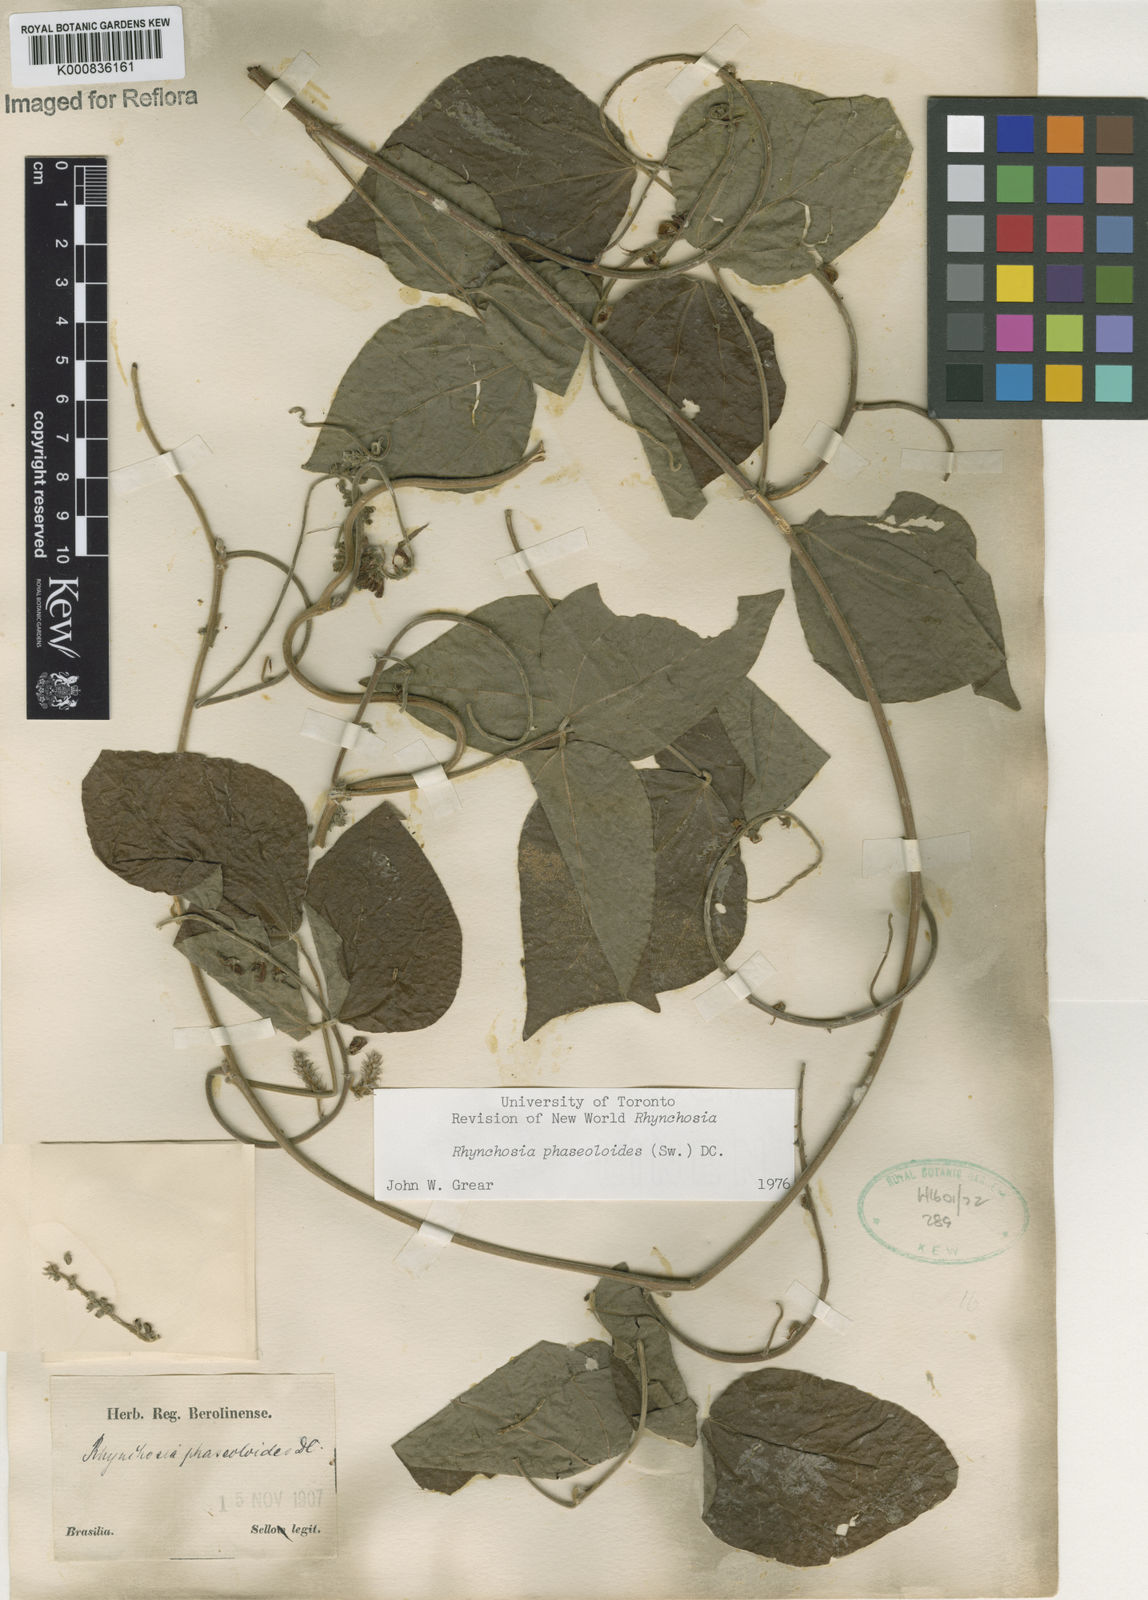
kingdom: Plantae
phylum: Tracheophyta
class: Magnoliopsida
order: Fabales
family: Fabaceae
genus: Rhynchosia
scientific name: Rhynchosia phaseoloides
